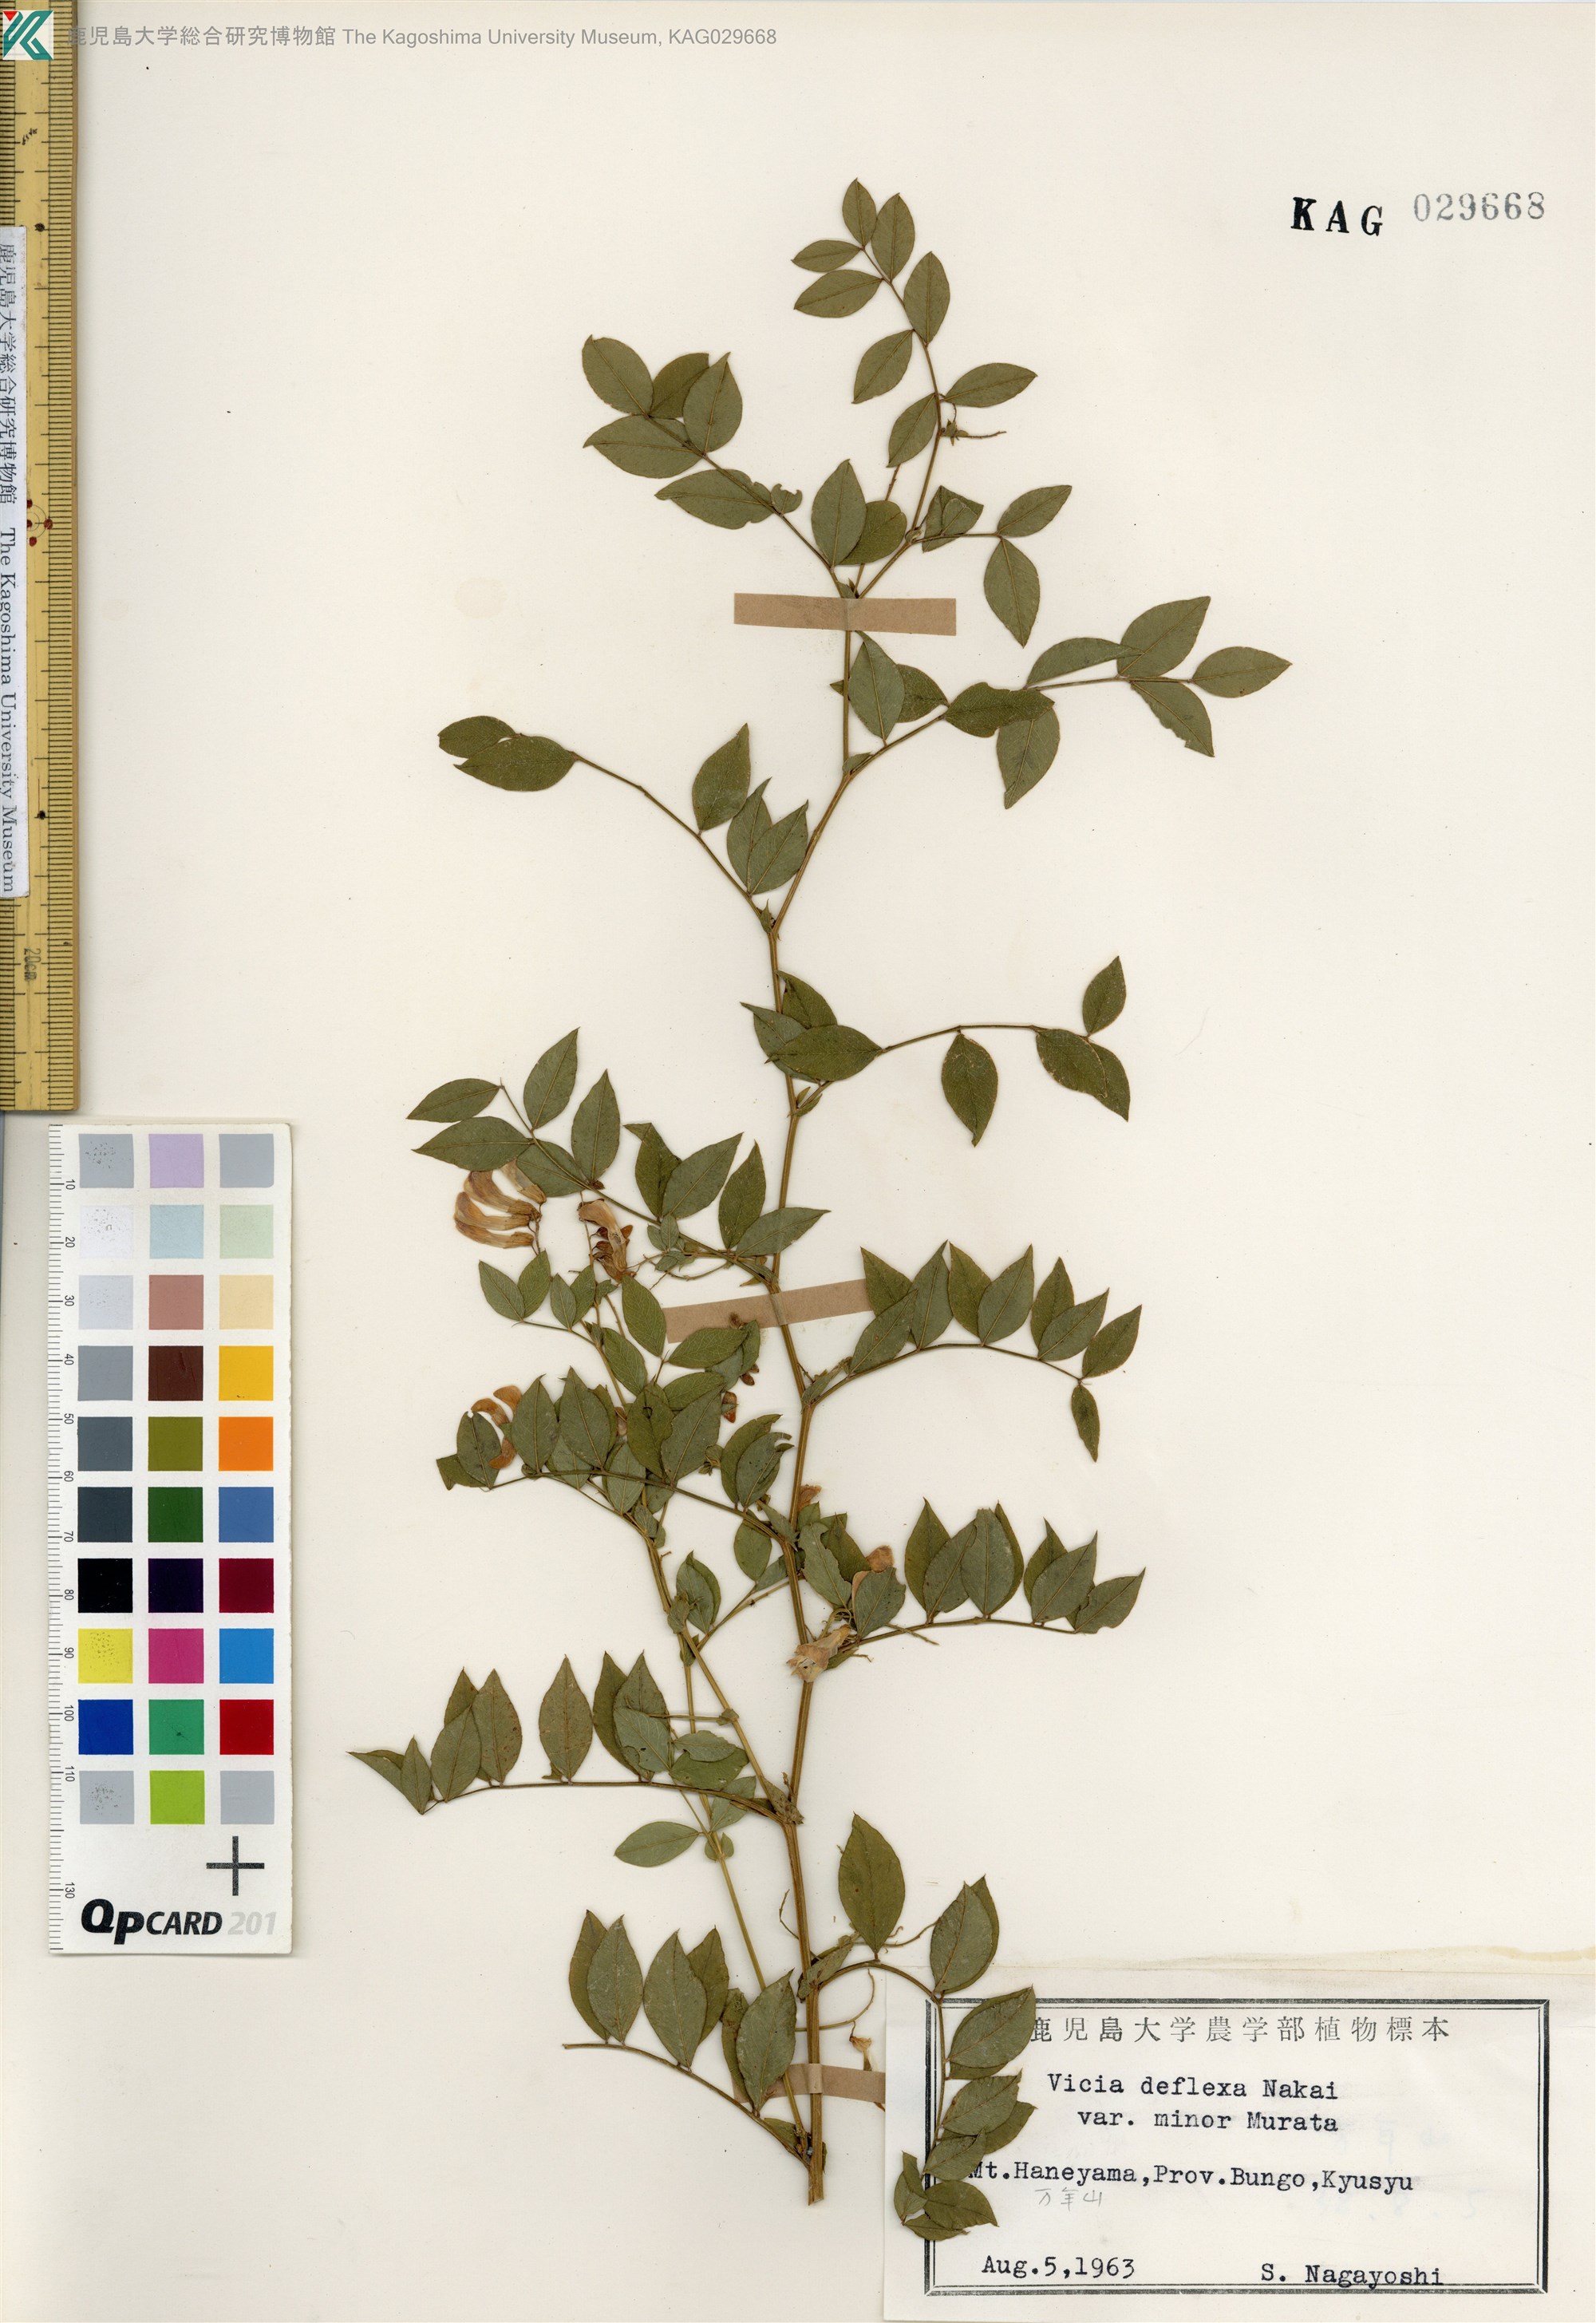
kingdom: Plantae
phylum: Tracheophyta
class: Magnoliopsida
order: Fabales
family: Fabaceae
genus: Vicia
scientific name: Vicia venosa
